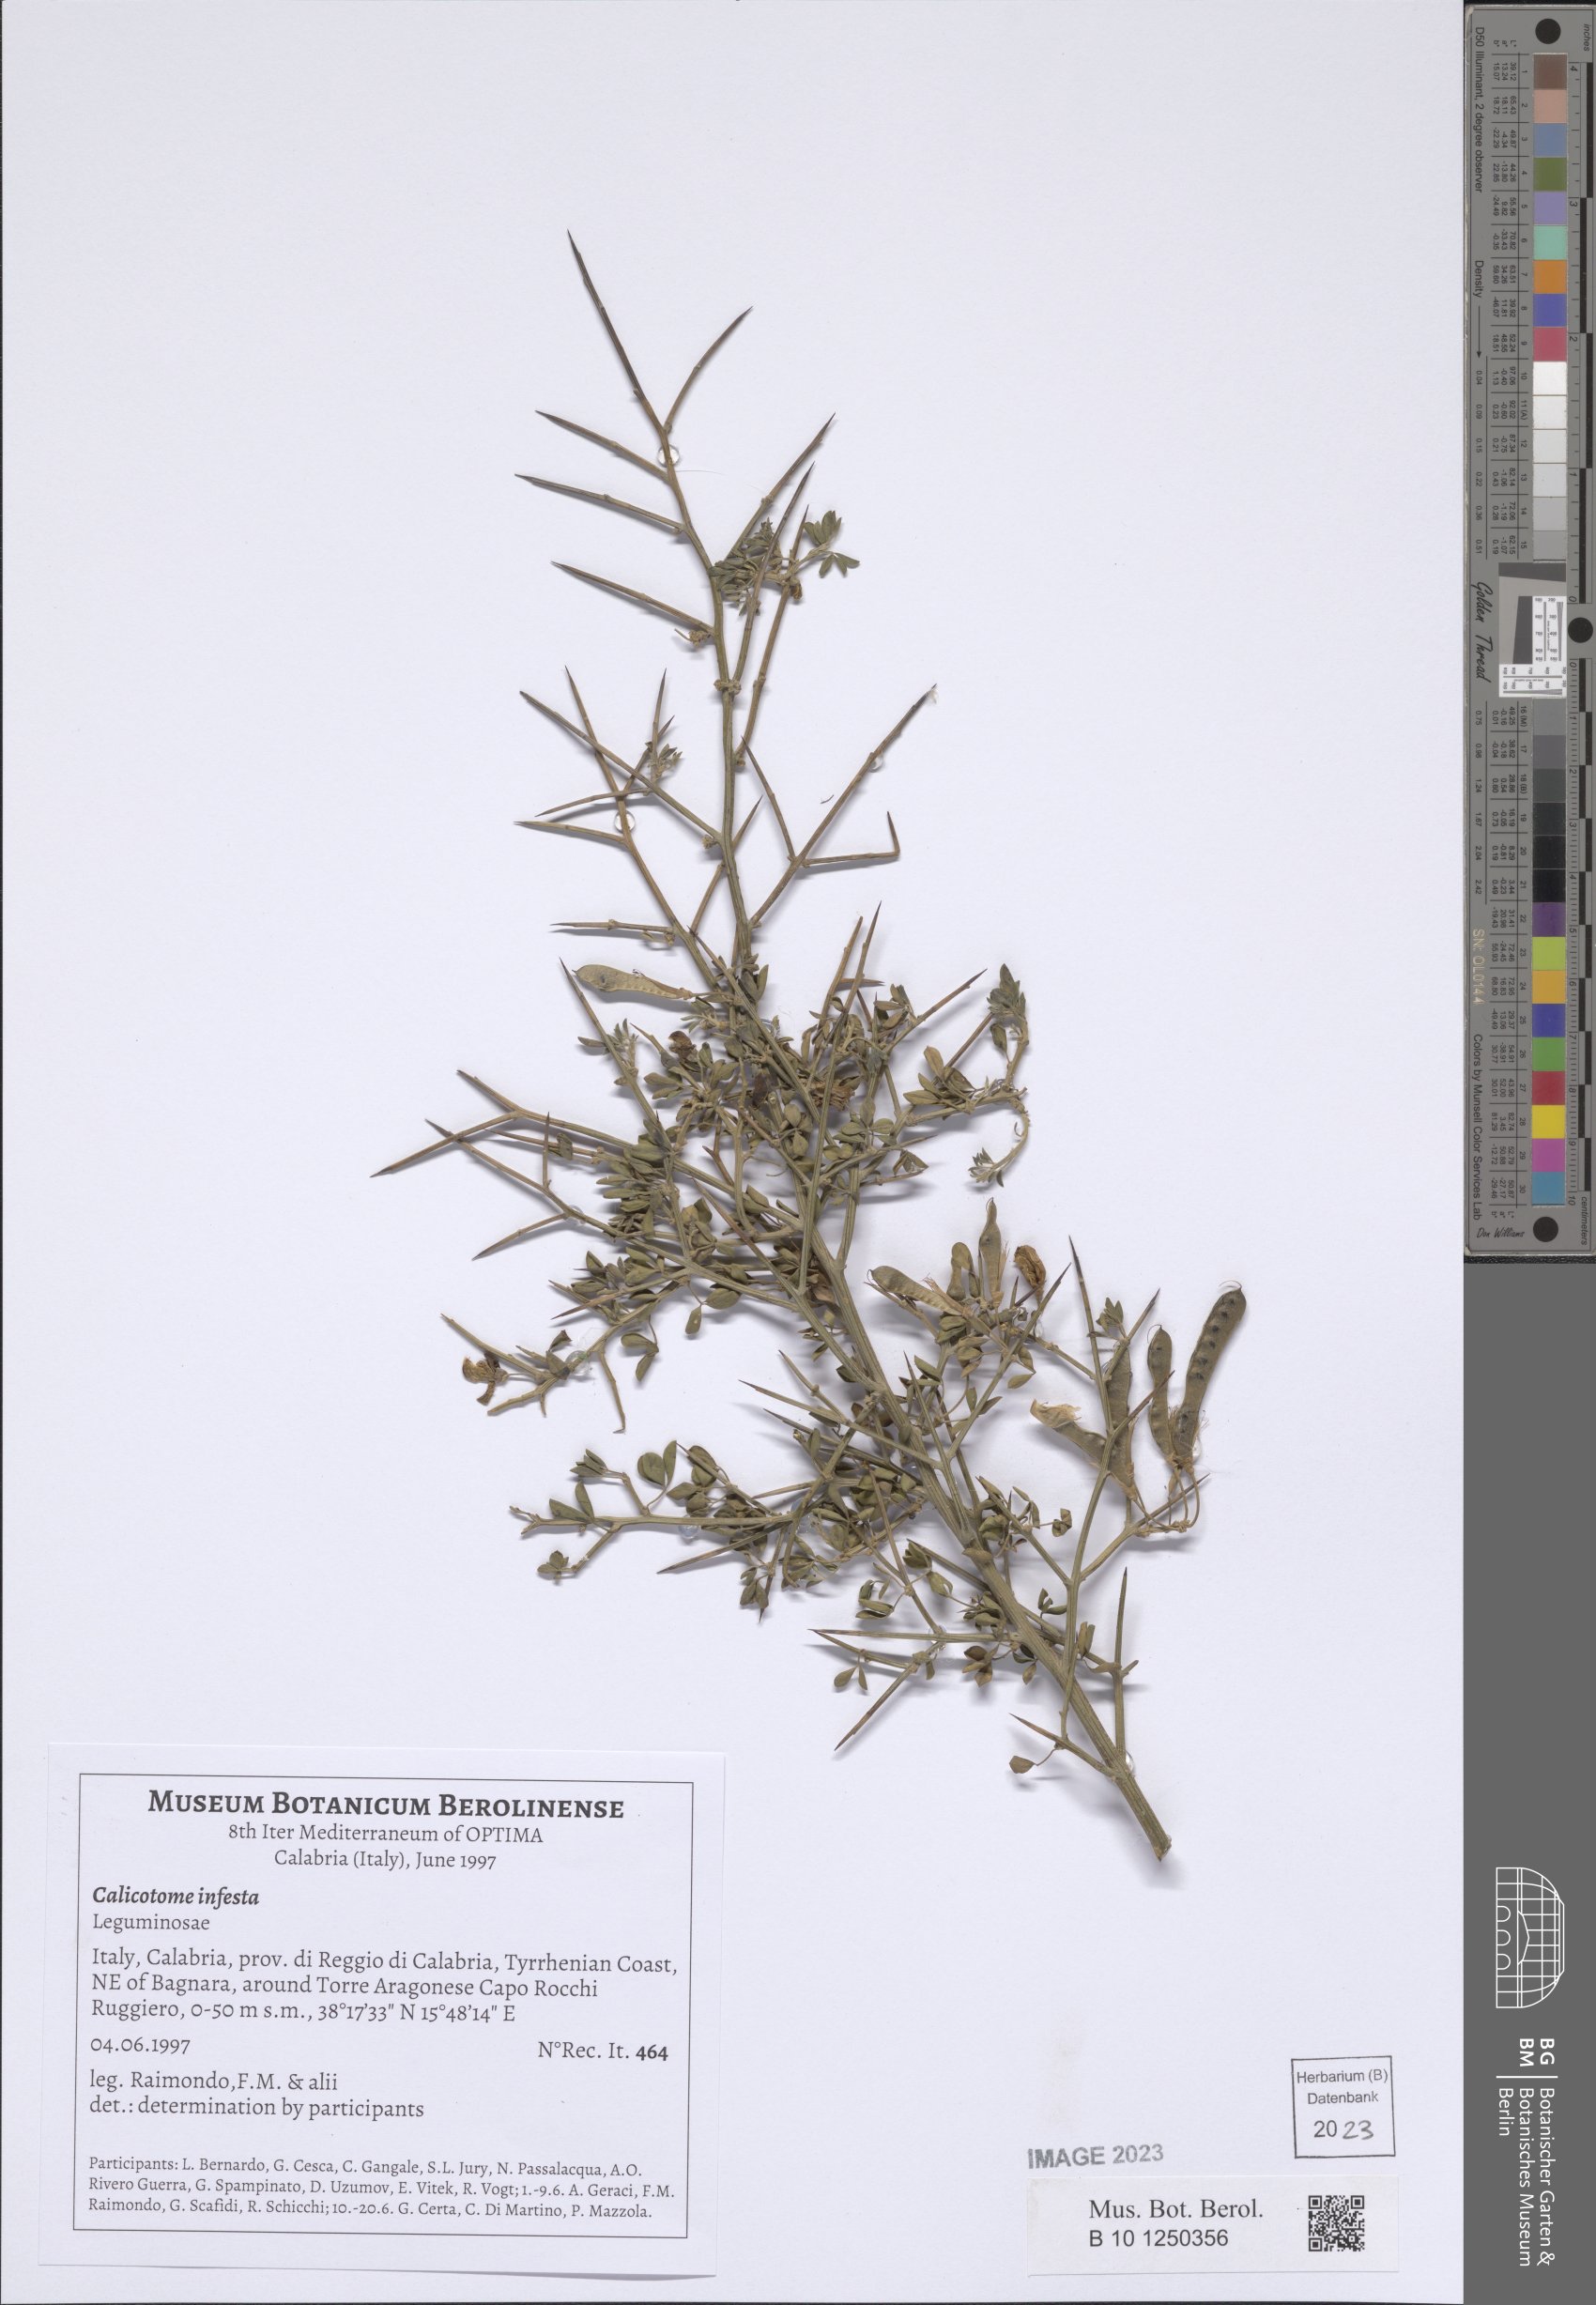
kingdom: Plantae
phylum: Tracheophyta
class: Magnoliopsida
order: Fabales
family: Fabaceae
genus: Calicotome
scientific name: Calicotome infesta
